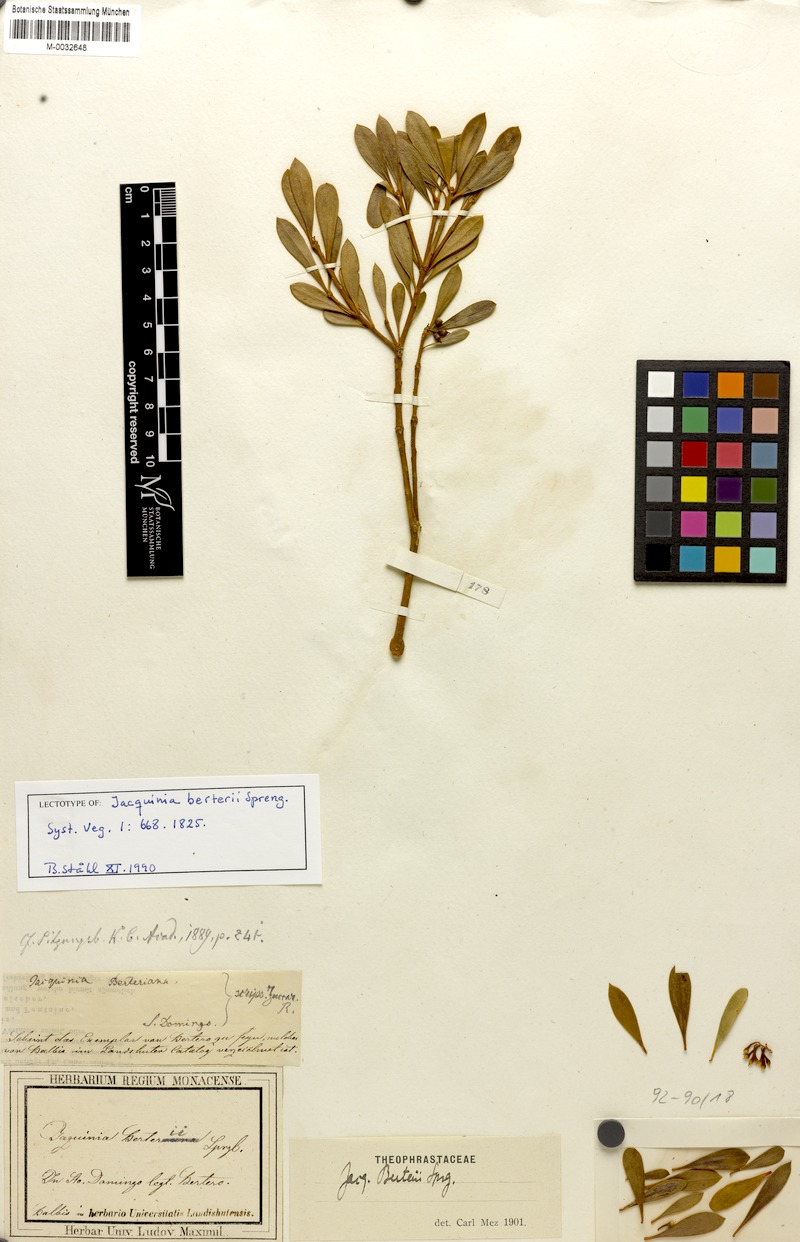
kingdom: Plantae
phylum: Tracheophyta
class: Magnoliopsida
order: Ericales
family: Primulaceae
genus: Jacquinia
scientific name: Jacquinia berteroi
